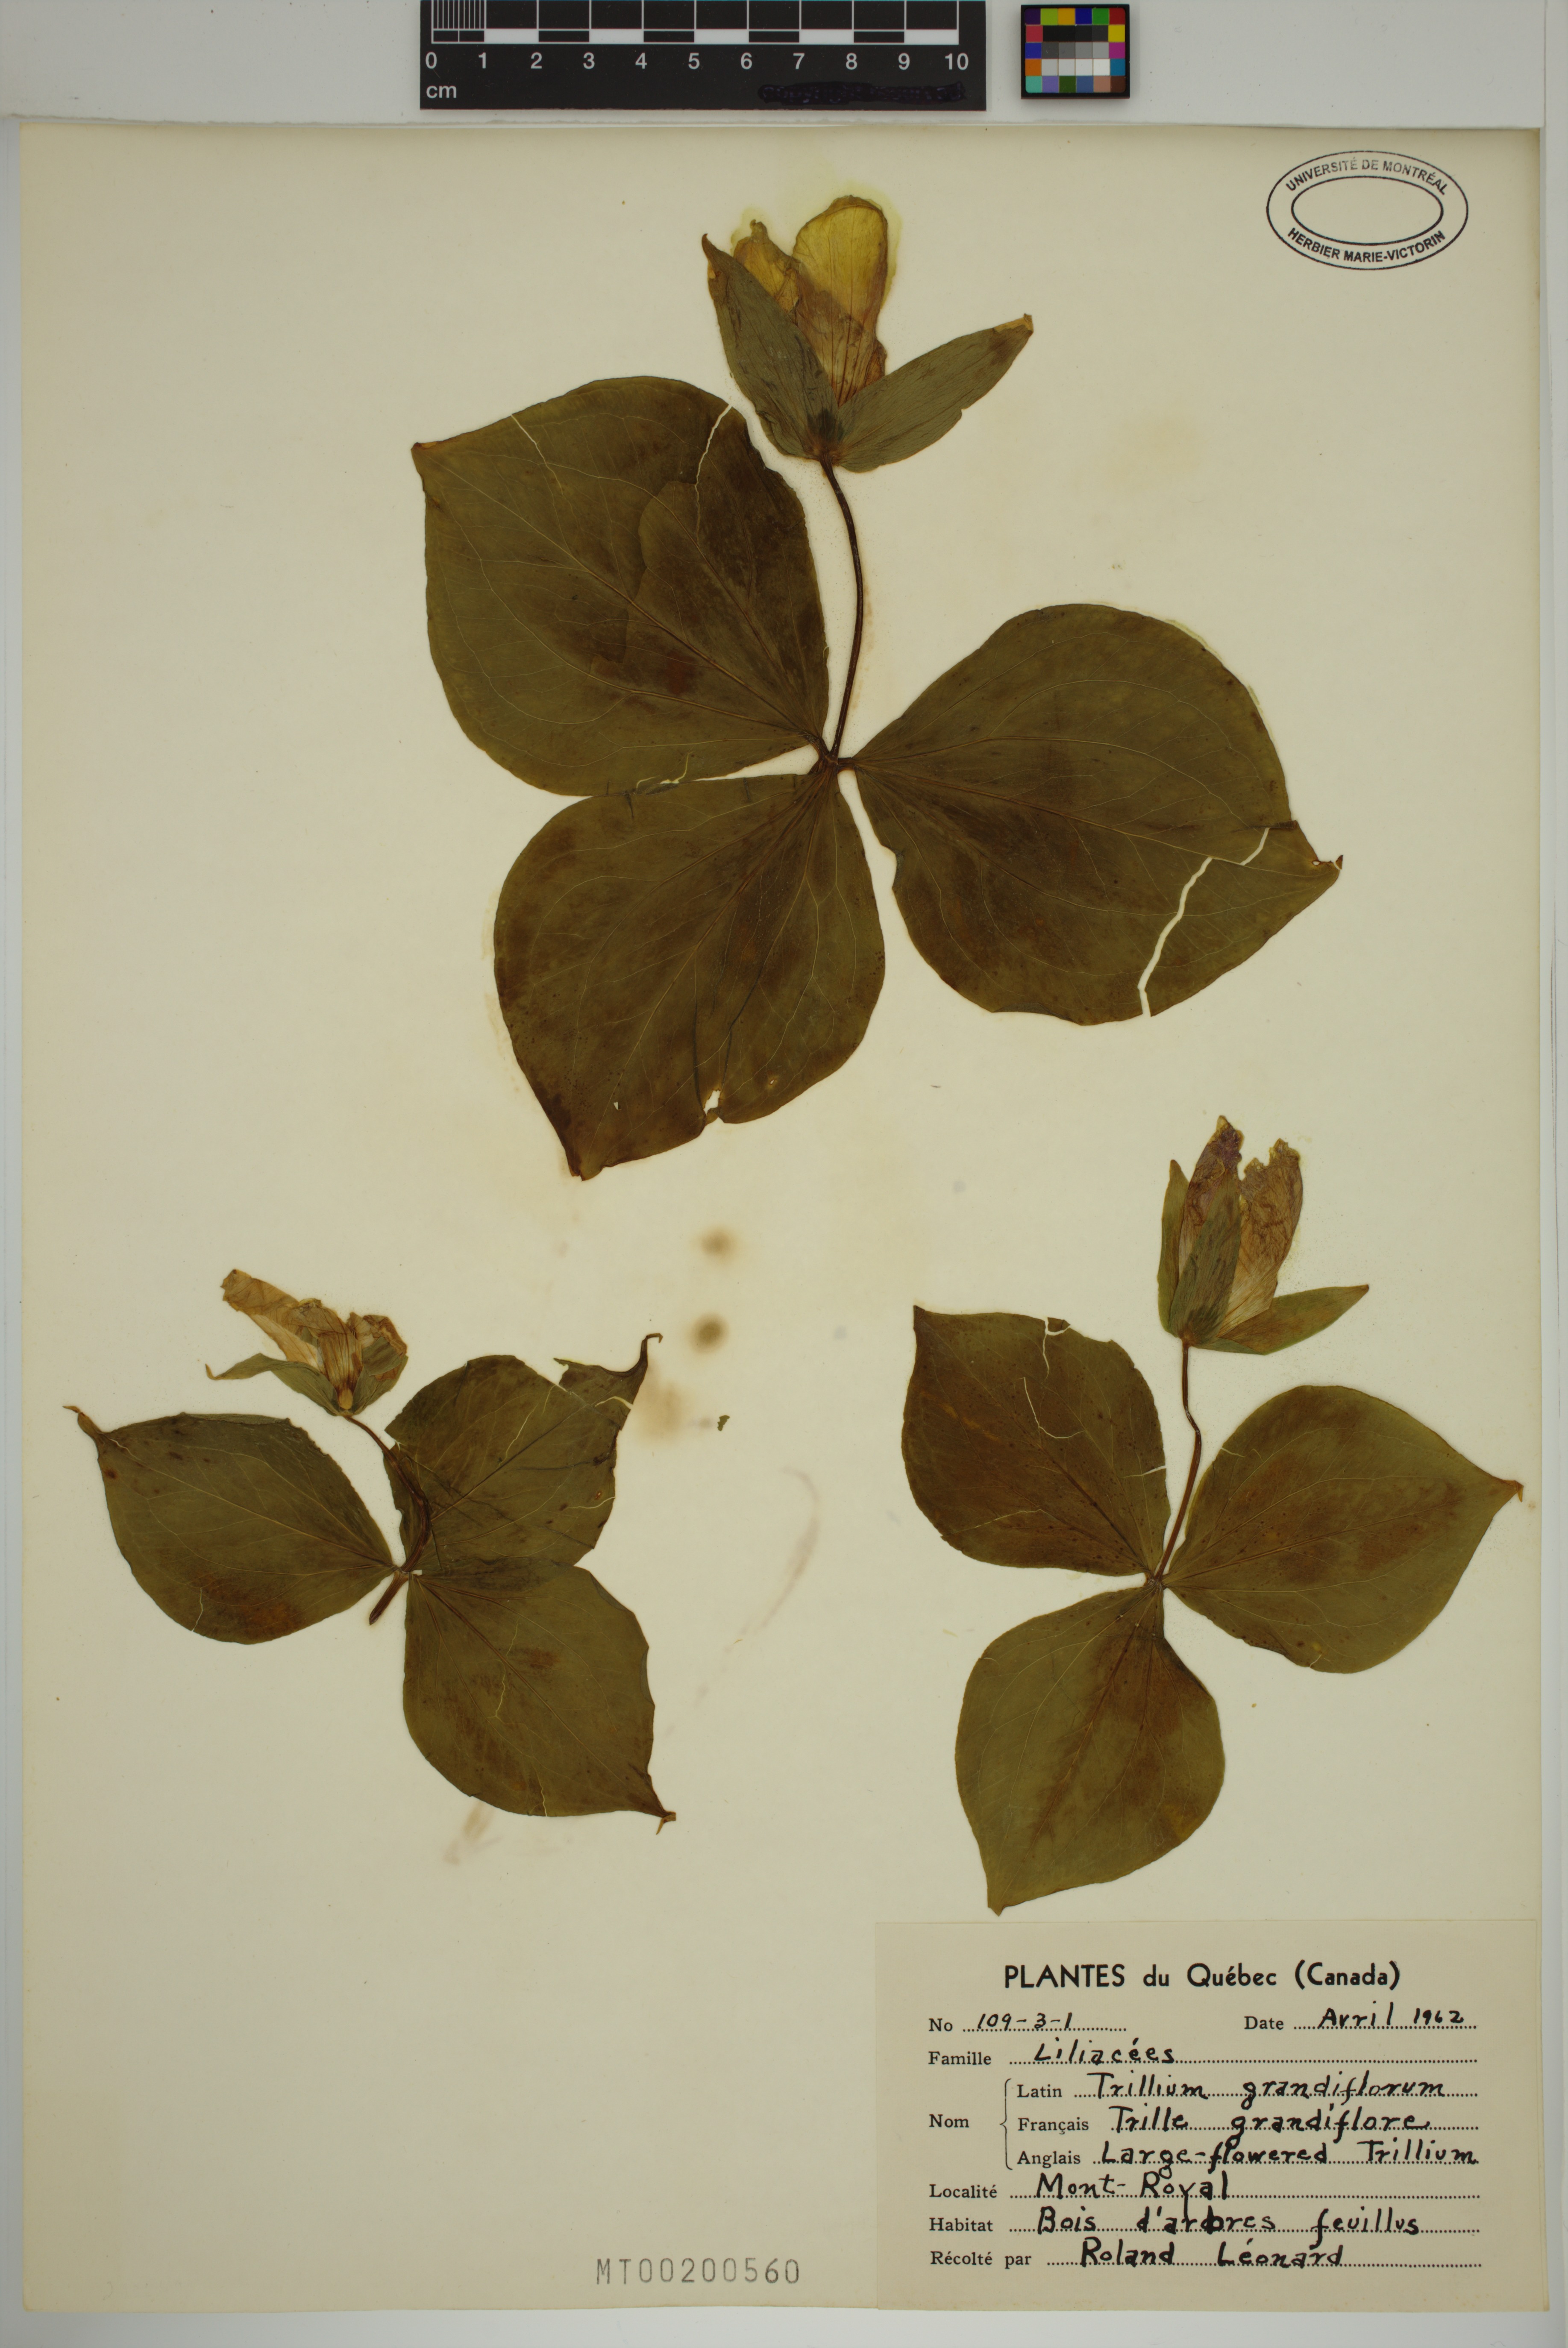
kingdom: Plantae
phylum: Tracheophyta
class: Liliopsida
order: Liliales
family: Melanthiaceae
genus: Trillium
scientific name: Trillium grandiflorum
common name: Great white trillium
